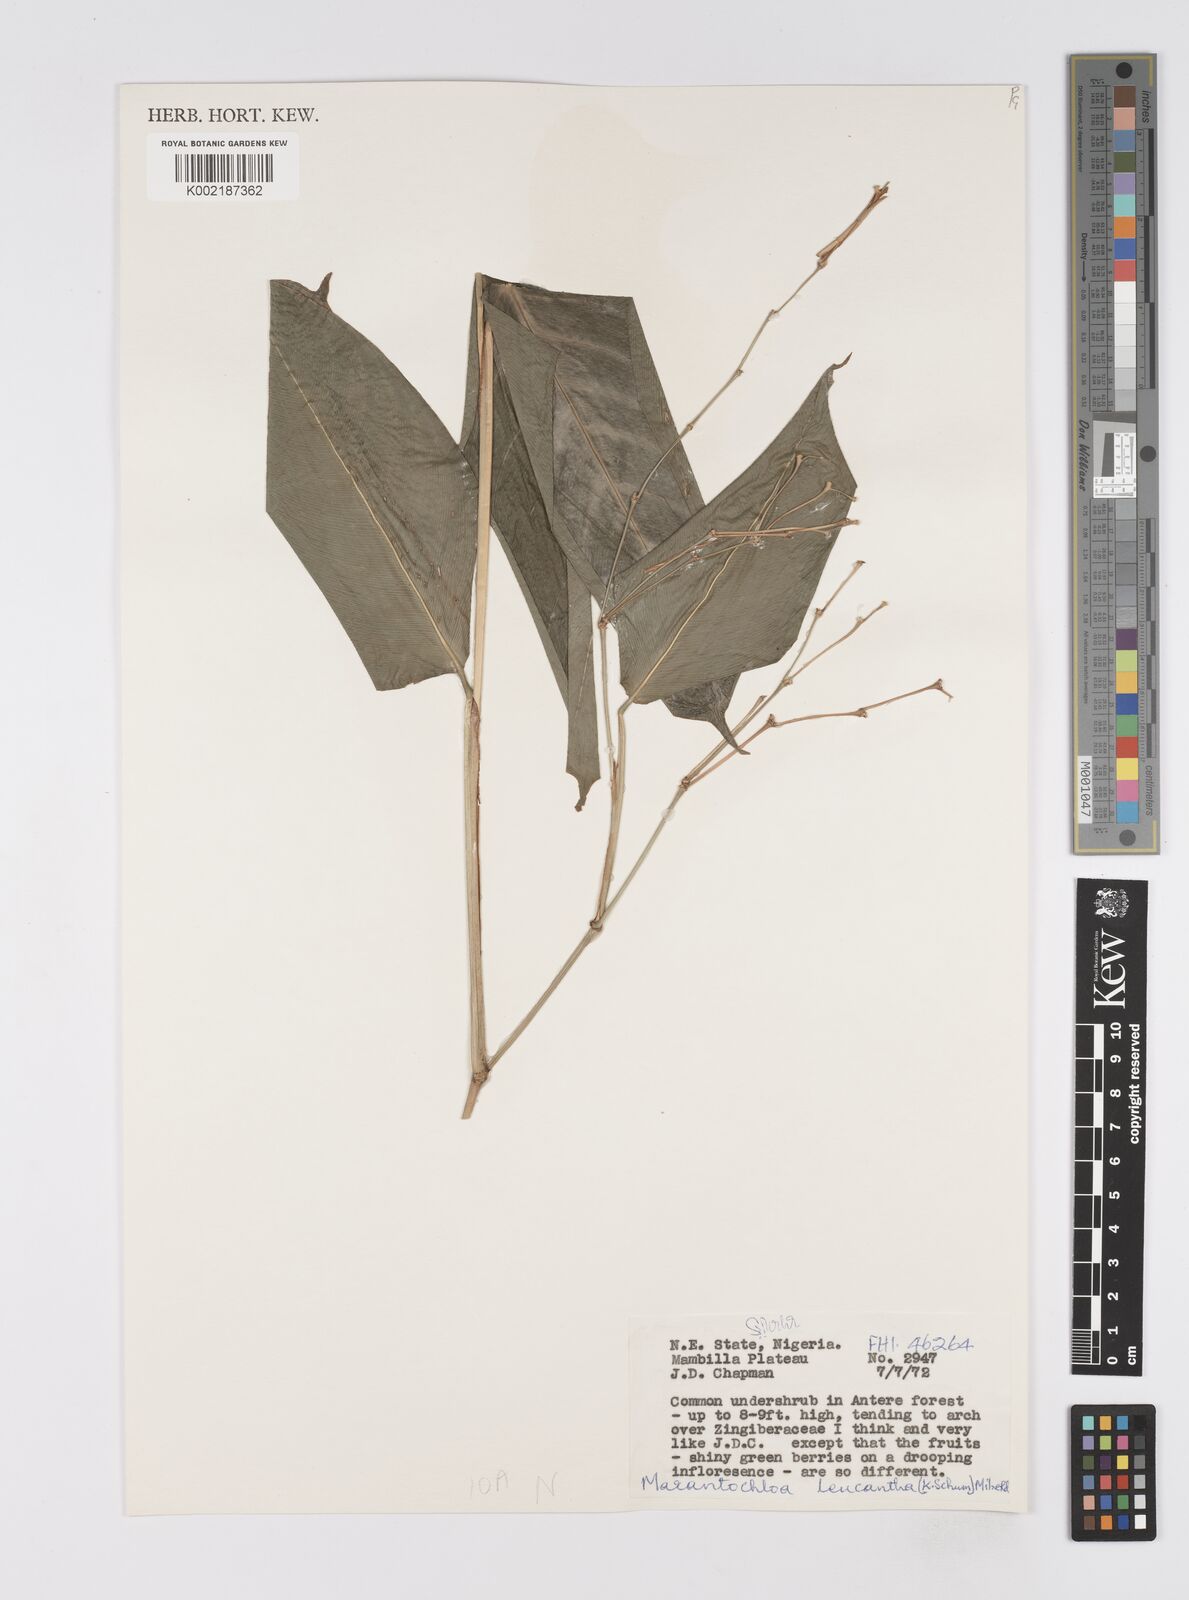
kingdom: Plantae
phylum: Tracheophyta
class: Liliopsida
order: Zingiberales
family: Marantaceae
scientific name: Marantaceae
